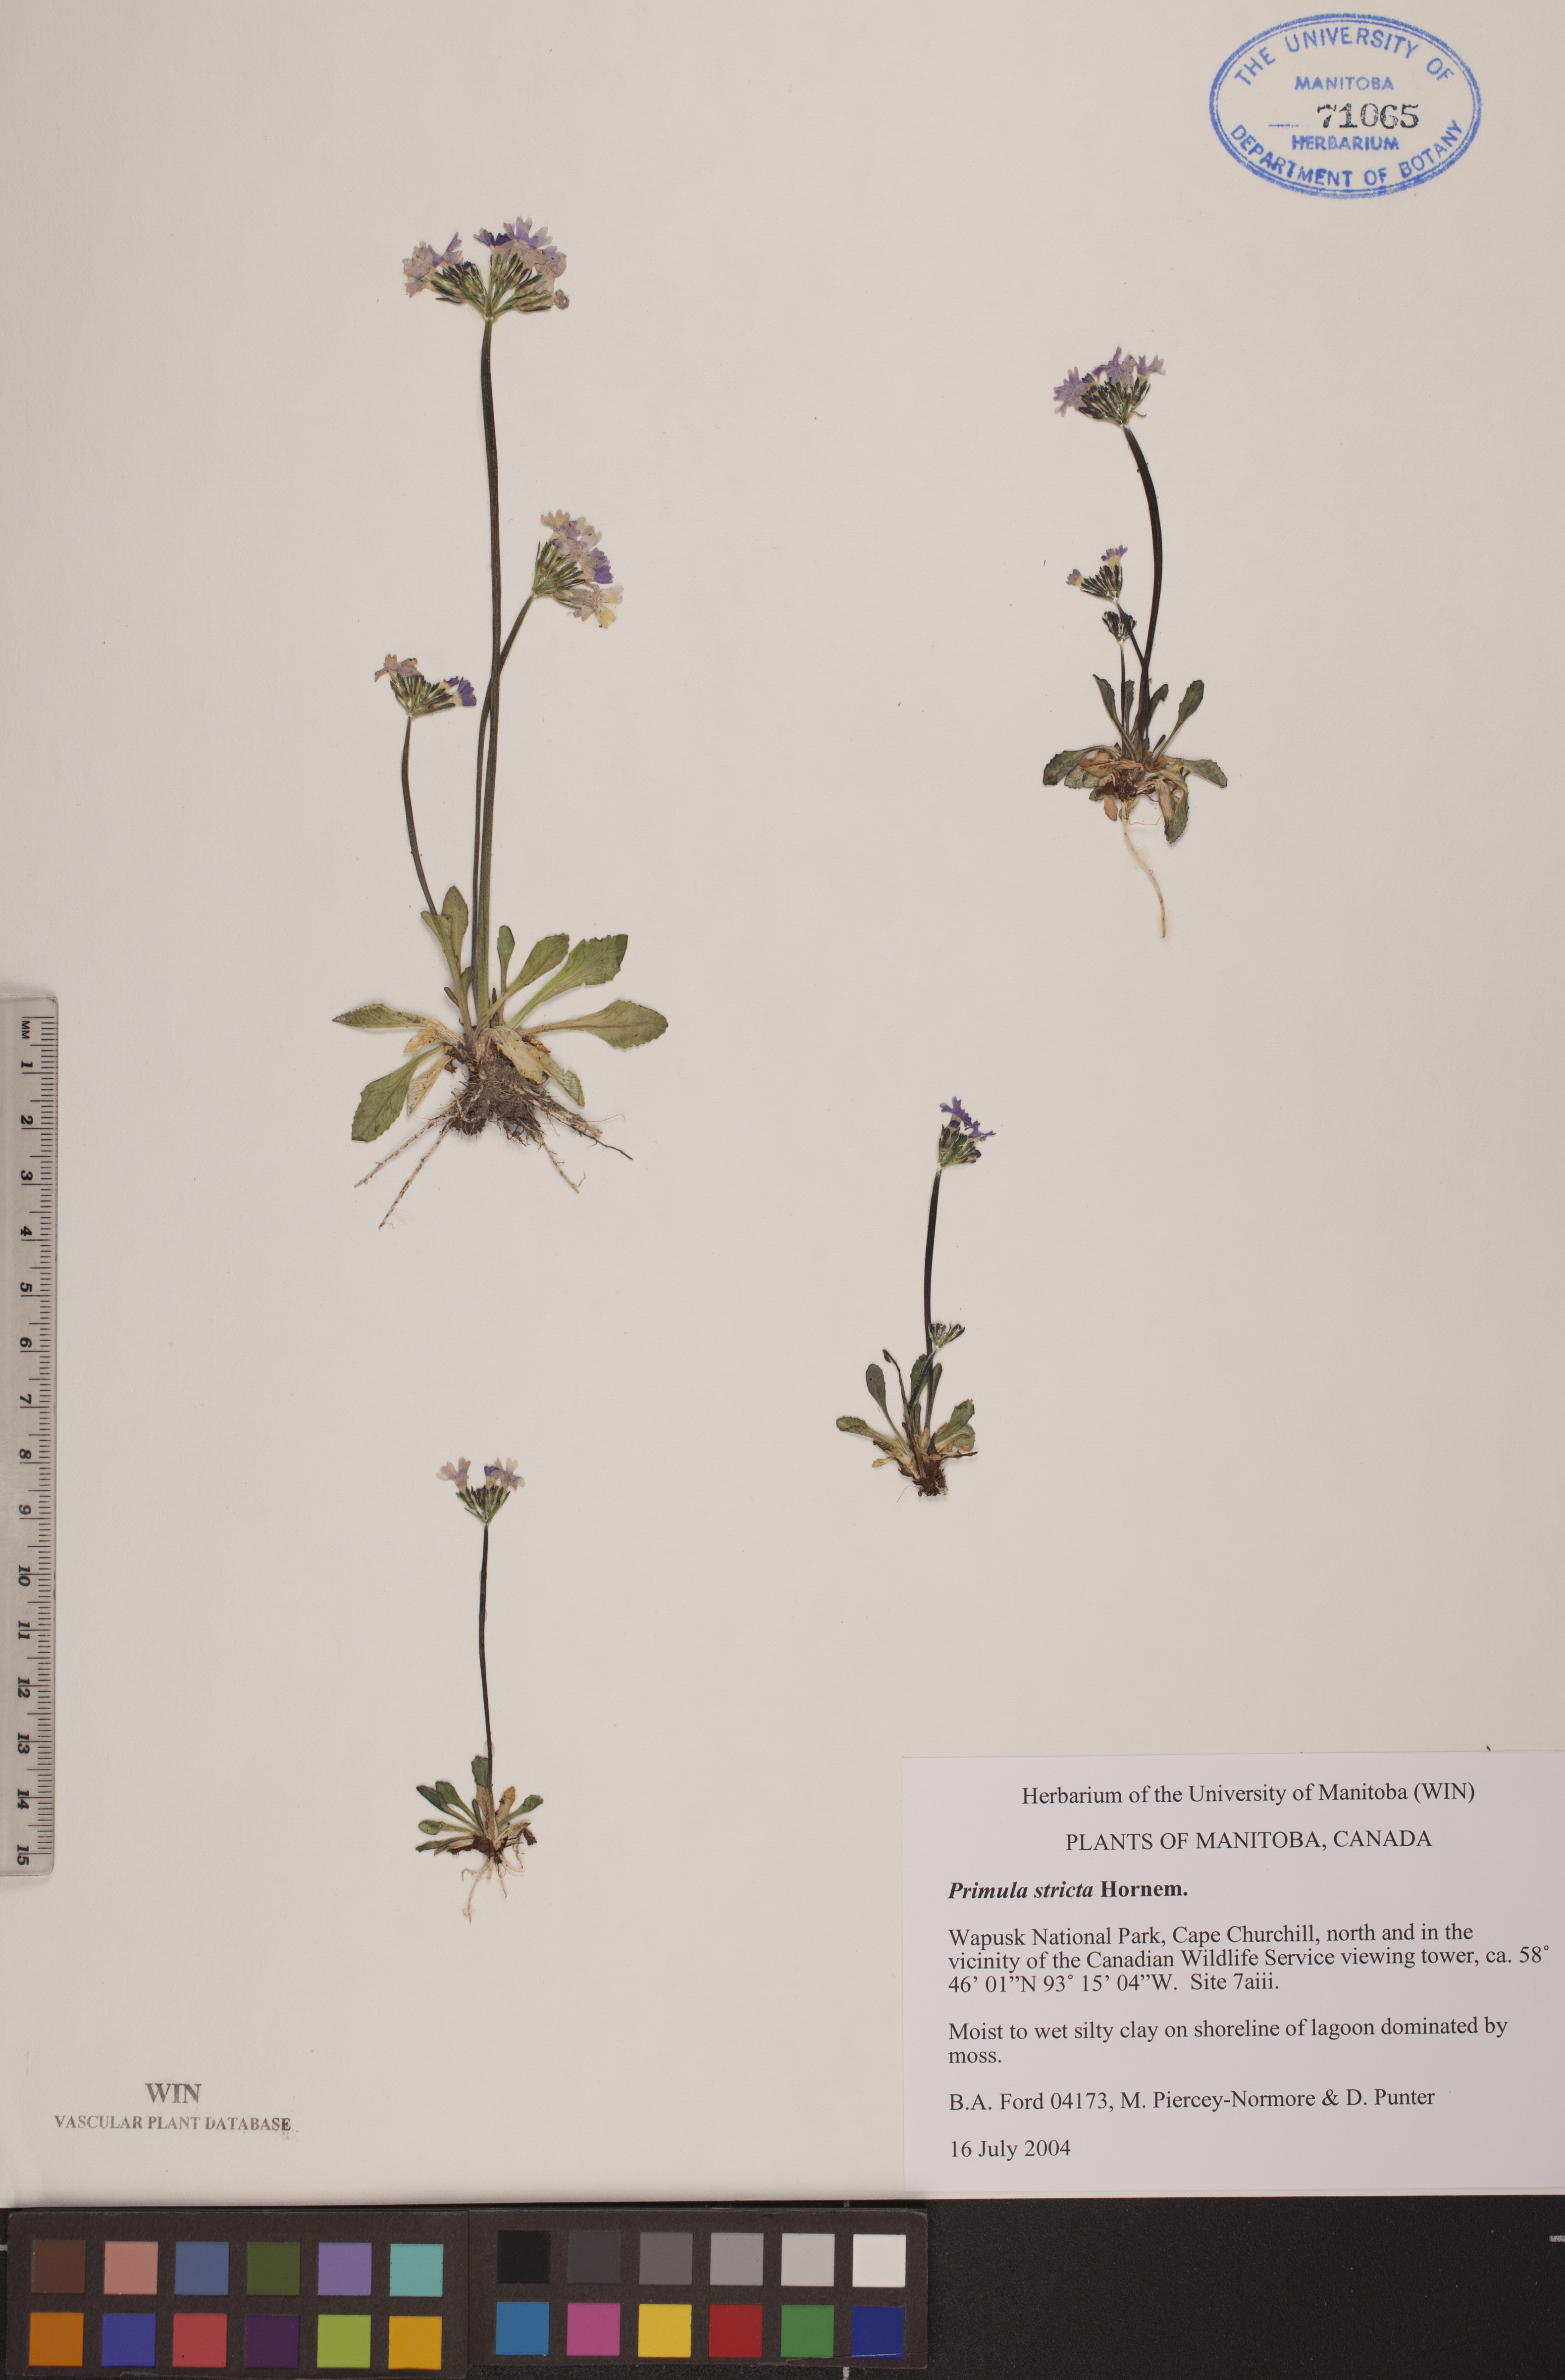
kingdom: Plantae
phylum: Tracheophyta
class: Magnoliopsida
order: Ericales
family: Primulaceae
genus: Primula
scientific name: Primula stricta
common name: Coastal primrose
